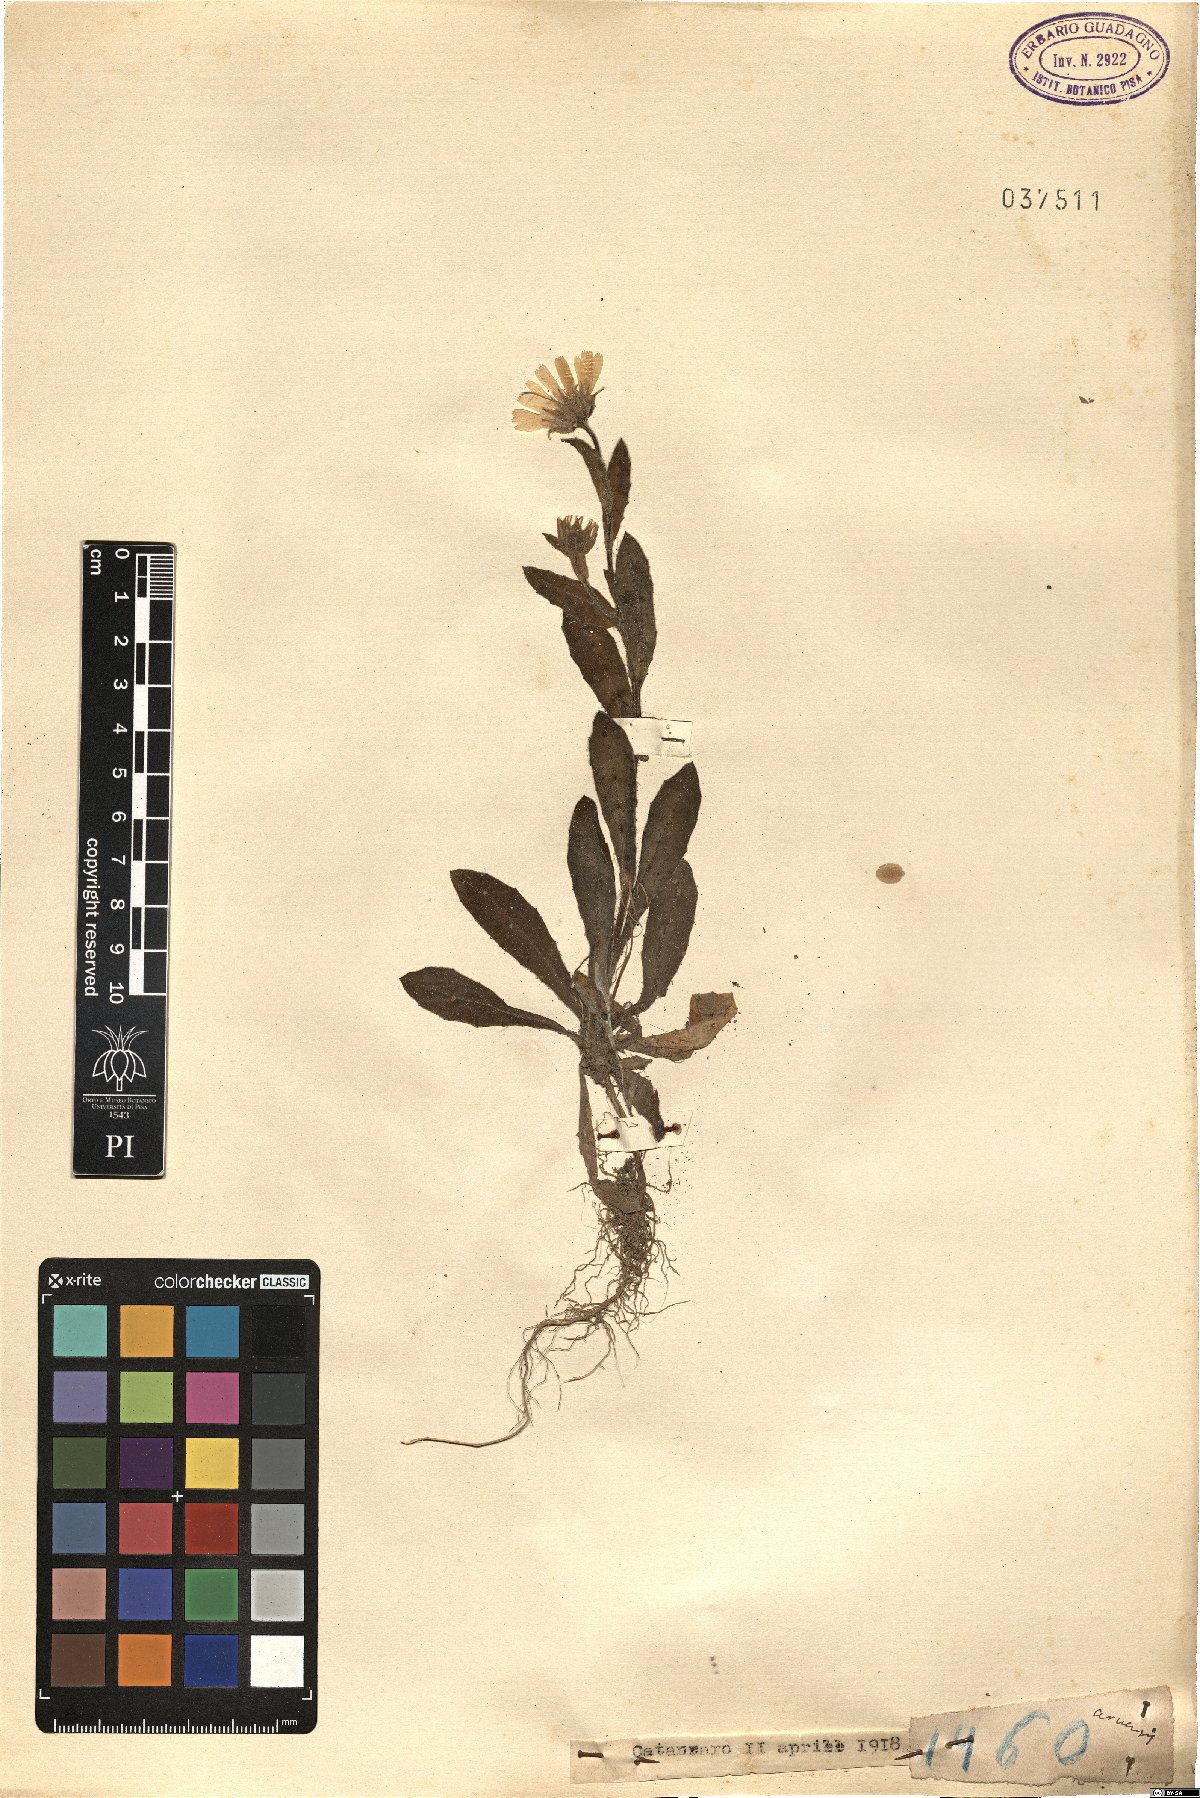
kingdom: Plantae
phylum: Tracheophyta
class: Magnoliopsida
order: Asterales
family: Asteraceae
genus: Calendula
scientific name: Calendula arvensis
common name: Field marigold
